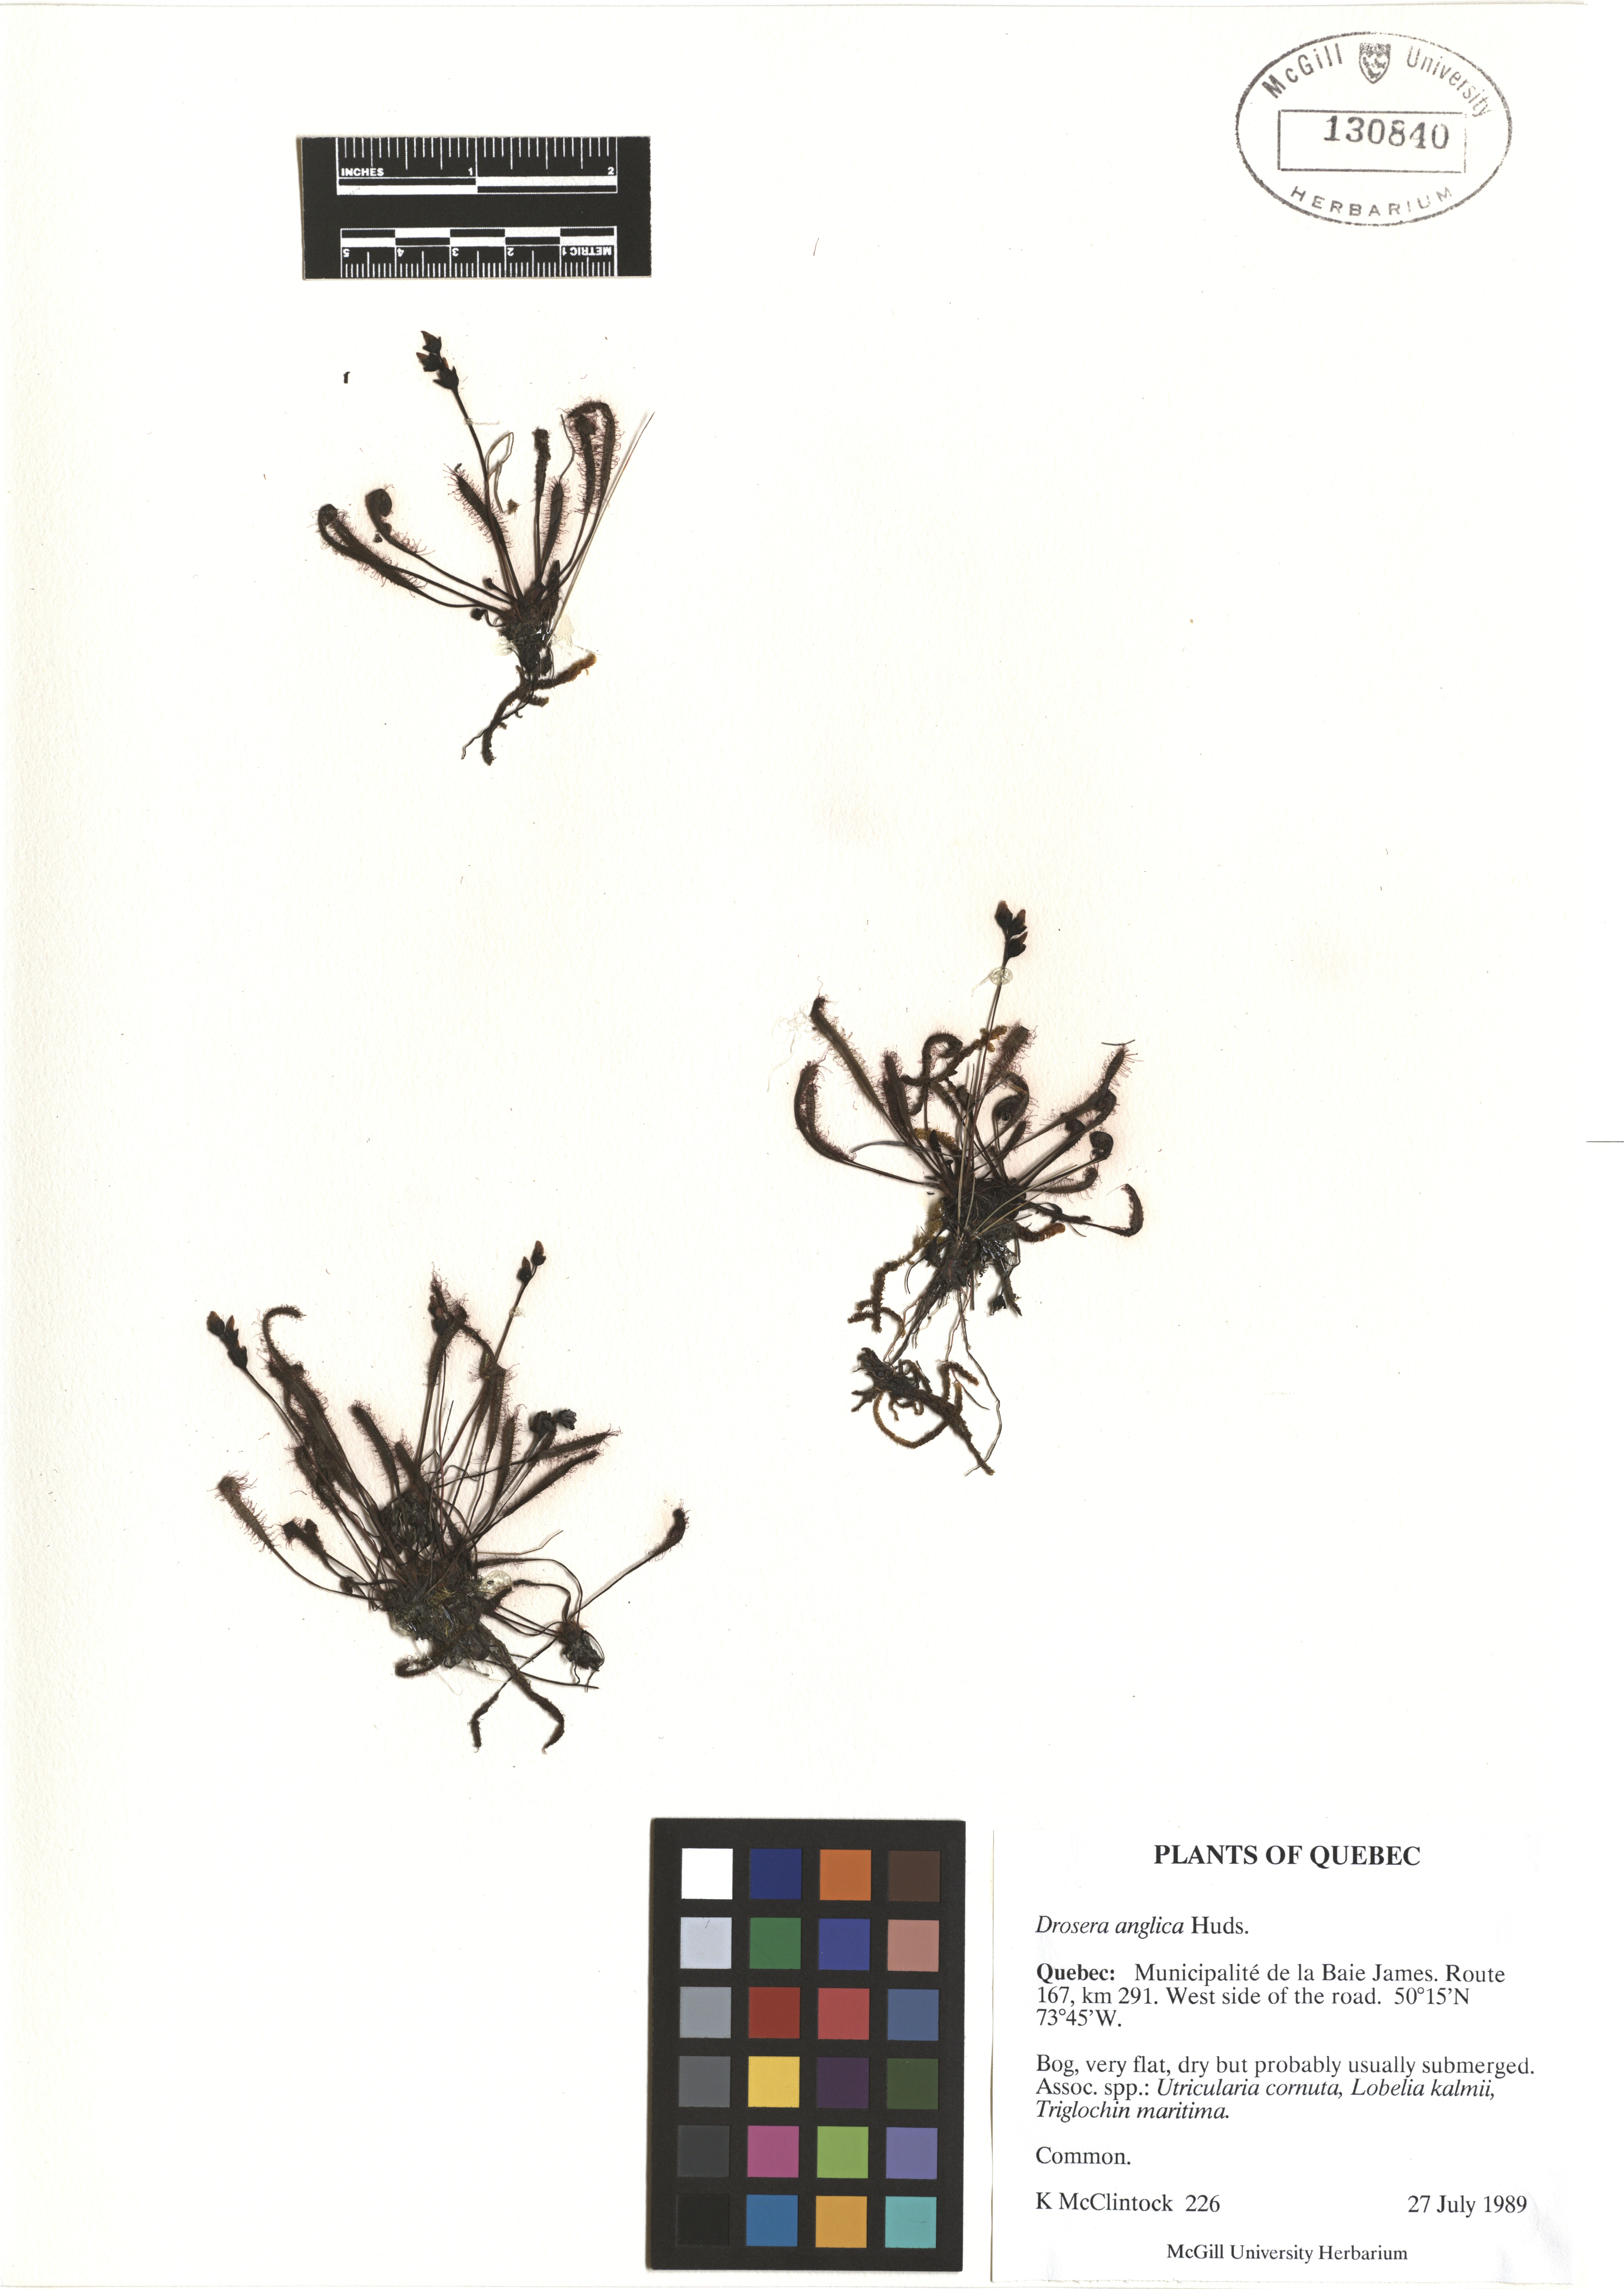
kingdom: Plantae
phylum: Tracheophyta
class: Magnoliopsida
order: Caryophyllales
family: Droseraceae
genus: Drosera
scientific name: Drosera anglica
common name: Great sundew
